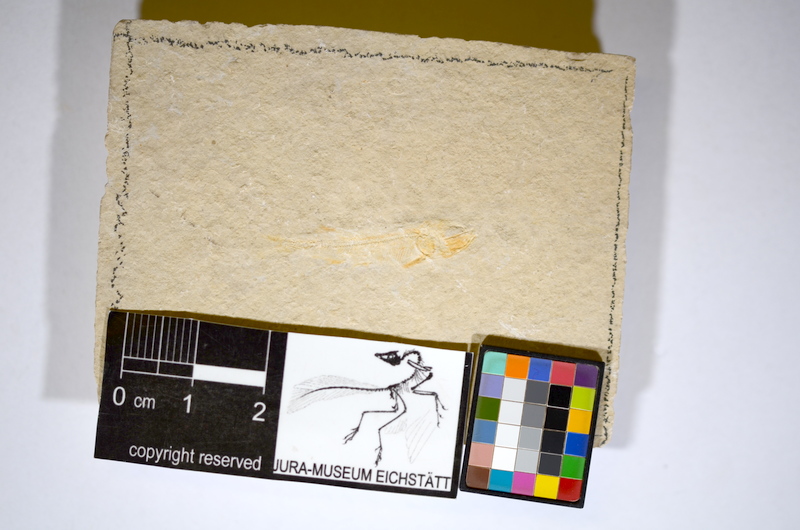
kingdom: Animalia
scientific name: Animalia
